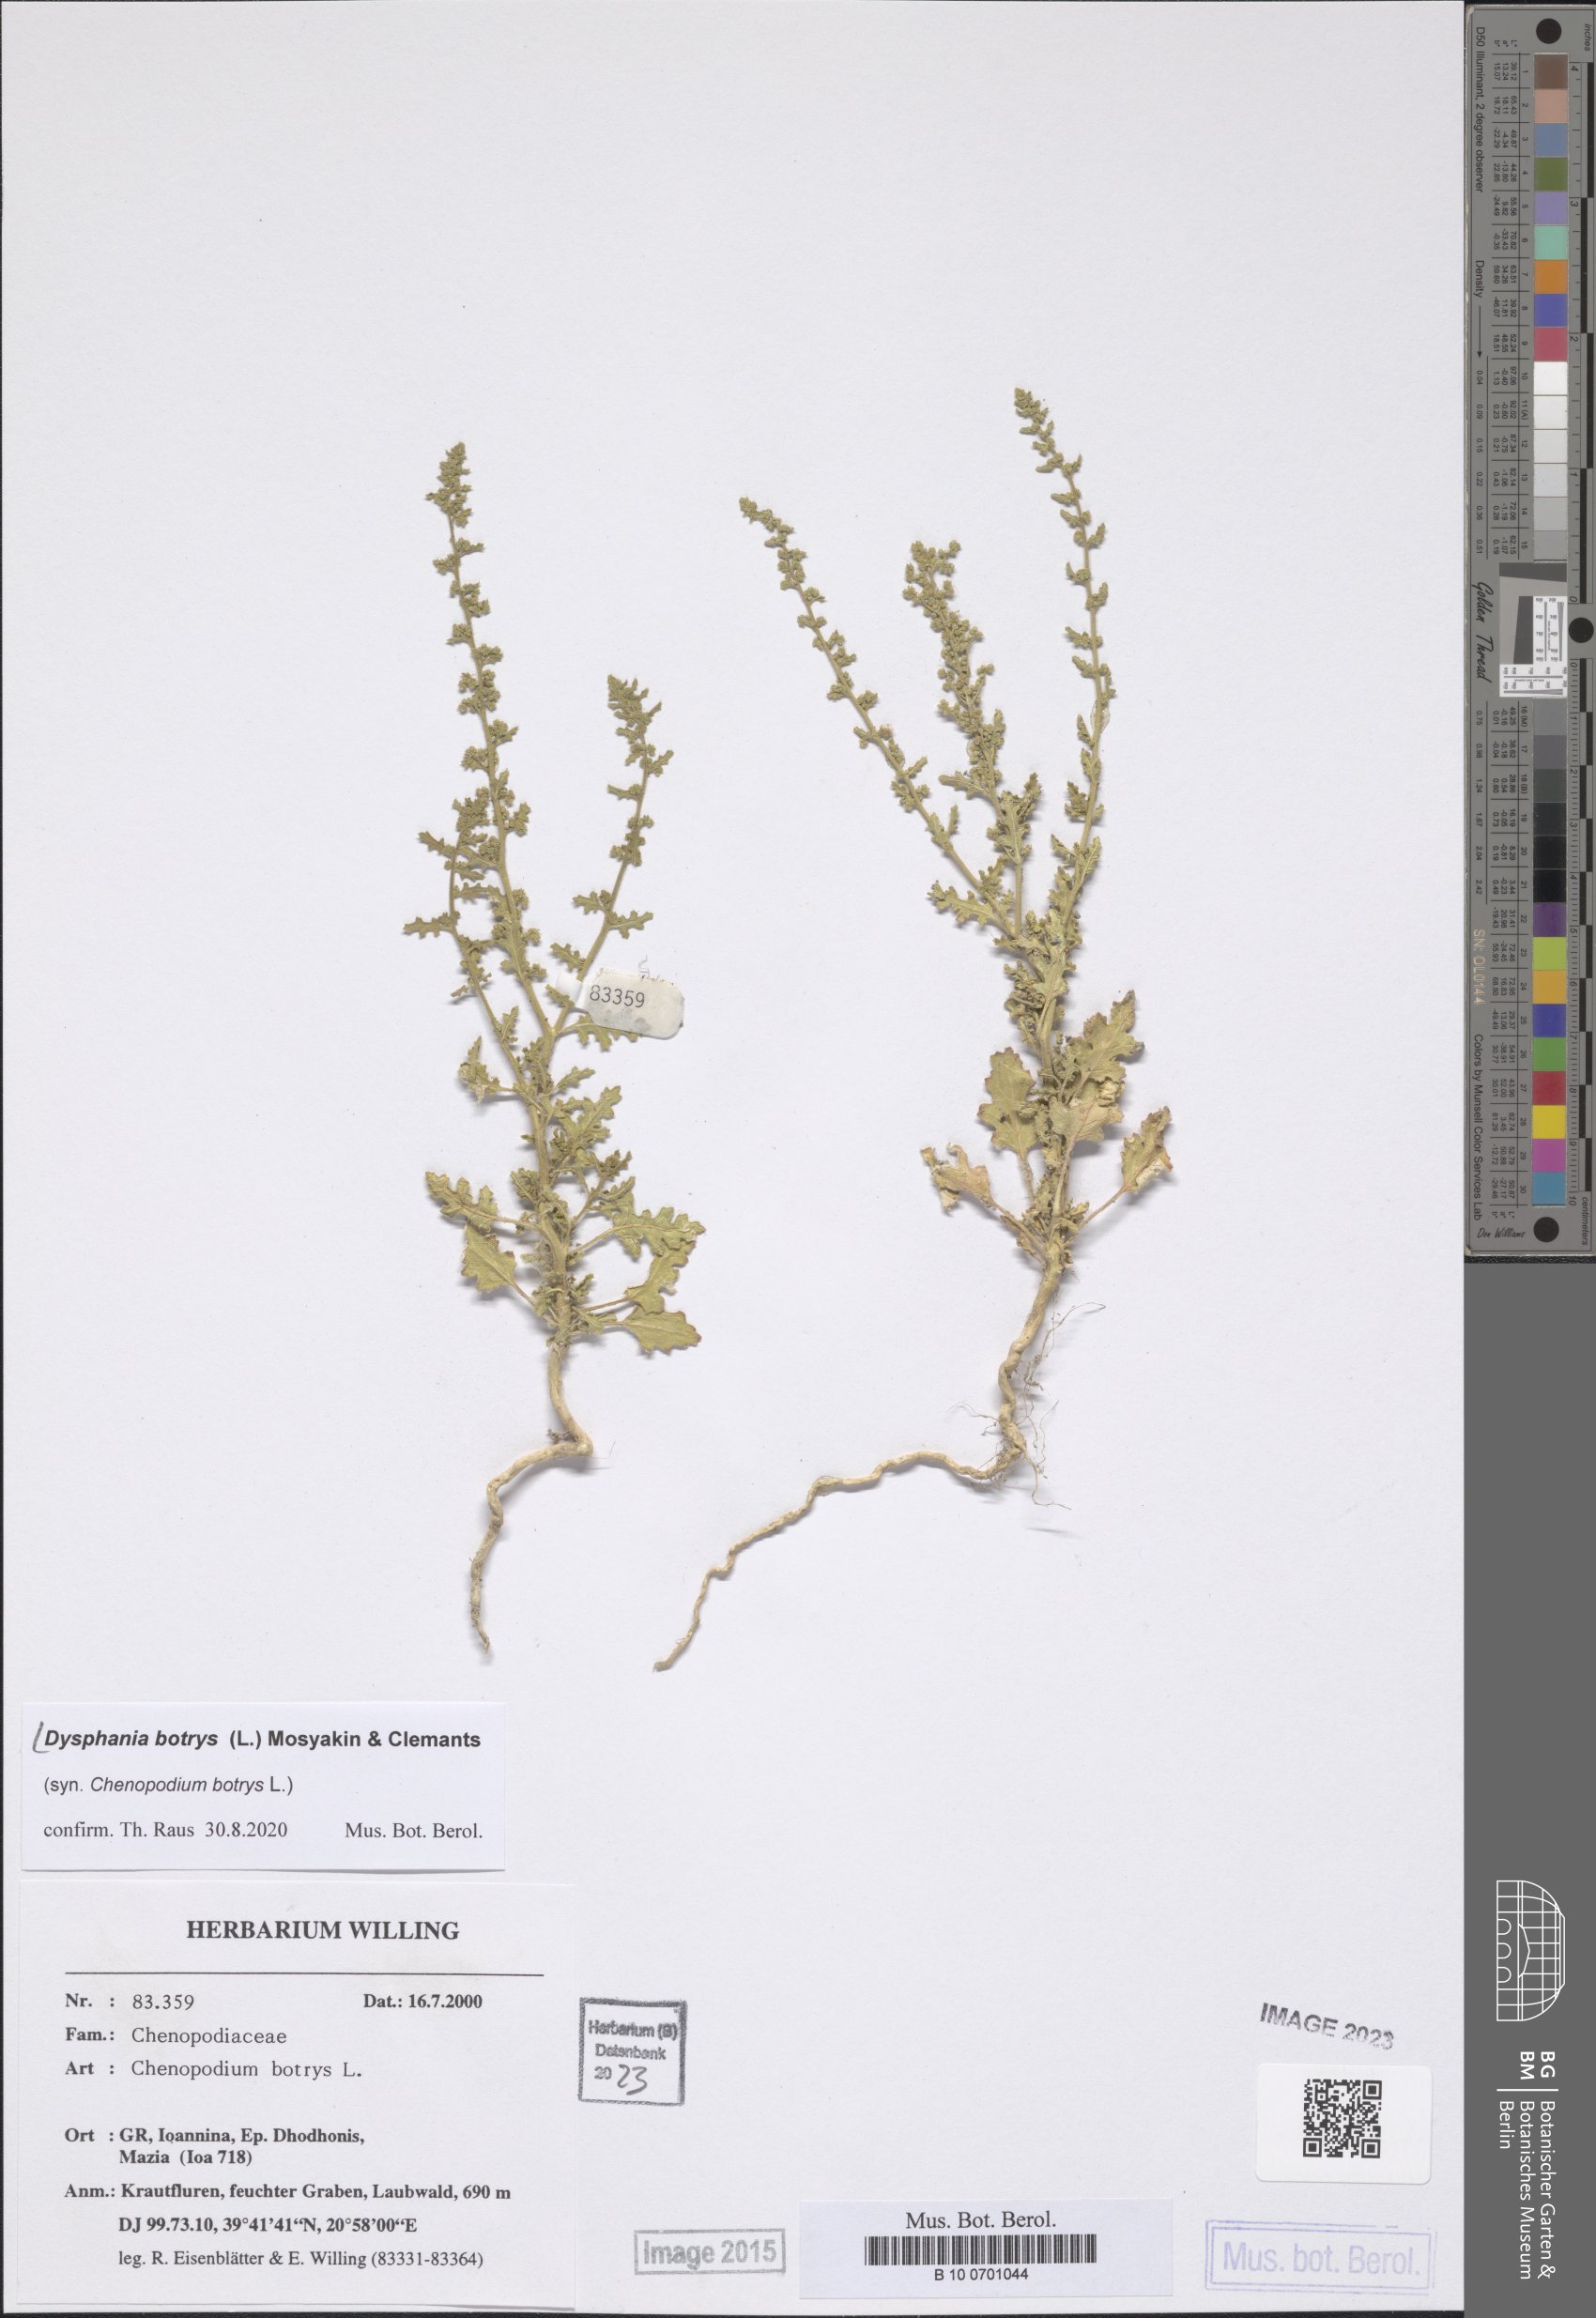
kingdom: Plantae
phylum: Tracheophyta
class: Magnoliopsida
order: Caryophyllales
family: Amaranthaceae
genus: Dysphania
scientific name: Dysphania botrys
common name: Feather-geranium
